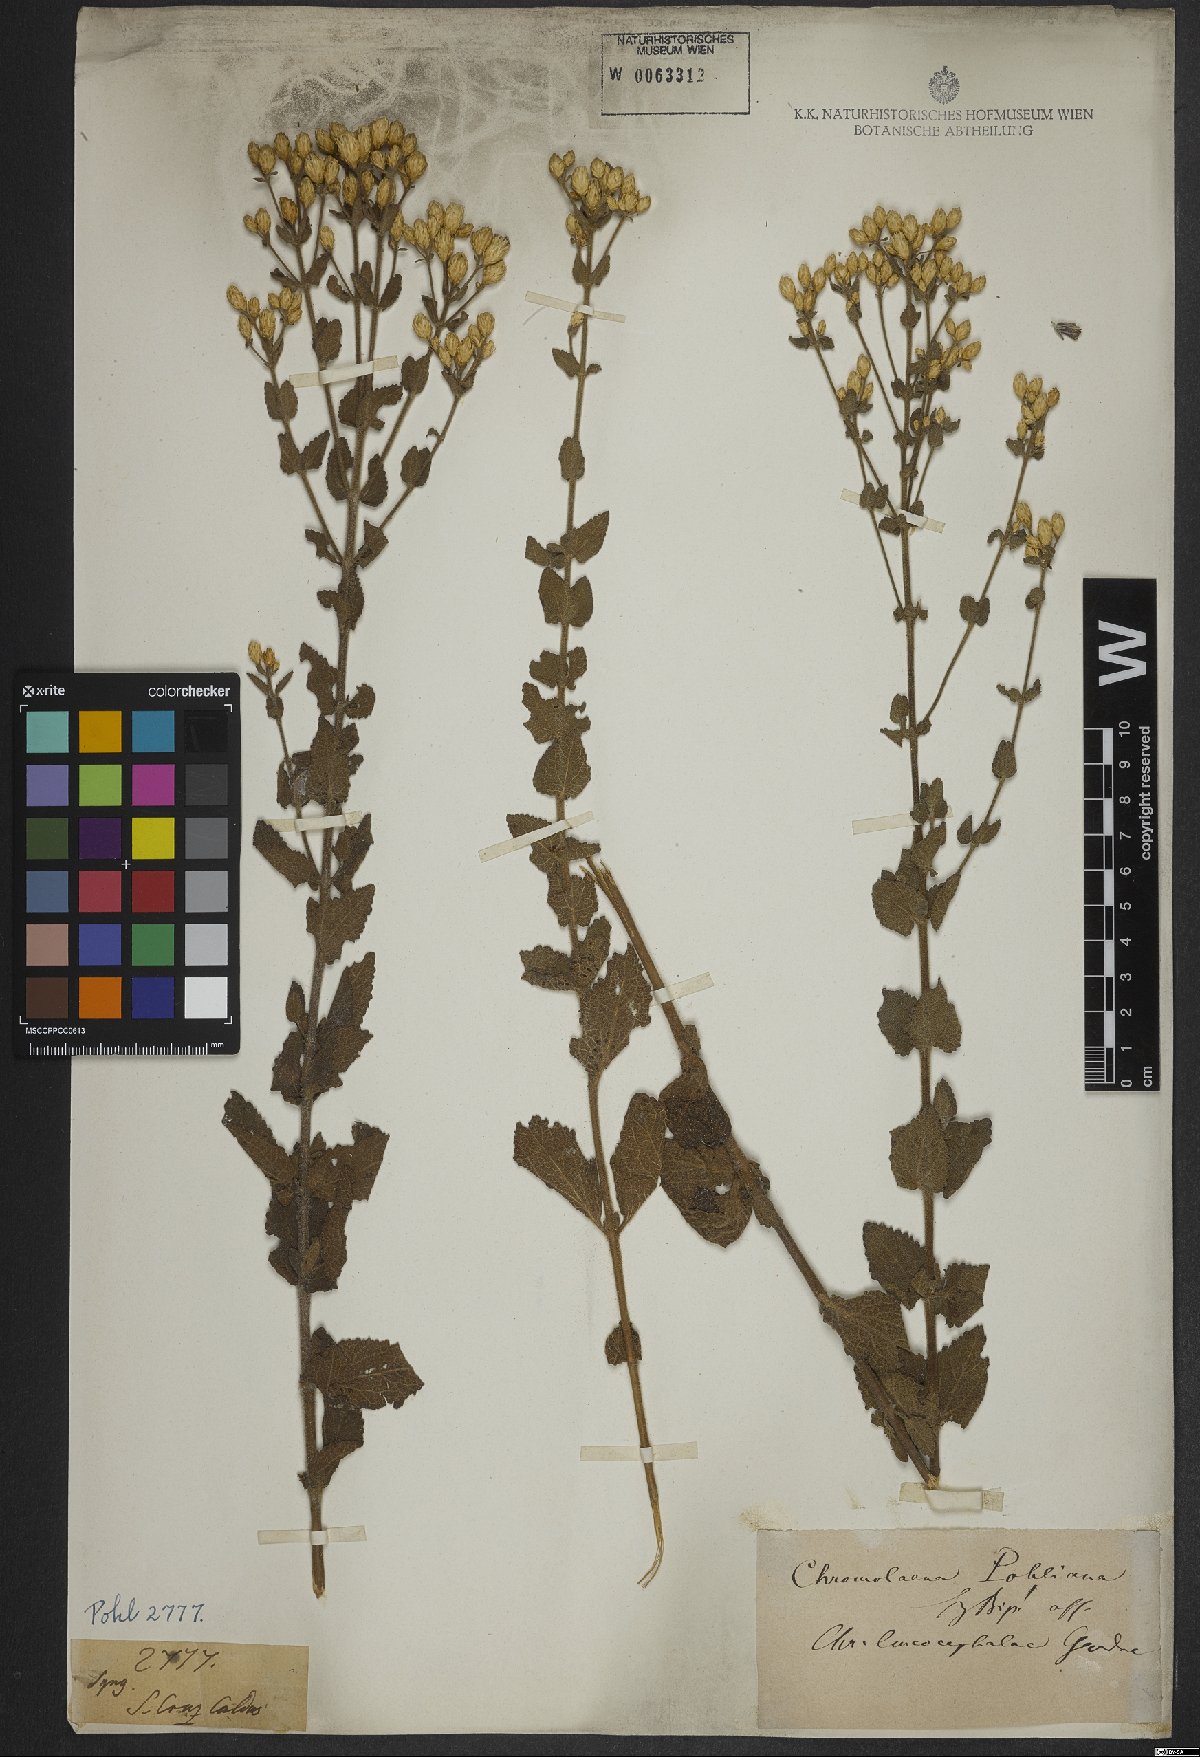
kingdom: Plantae
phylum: Tracheophyta
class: Magnoliopsida
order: Asterales
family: Asteraceae
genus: Chromolaena
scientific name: Chromolaena horminoides
